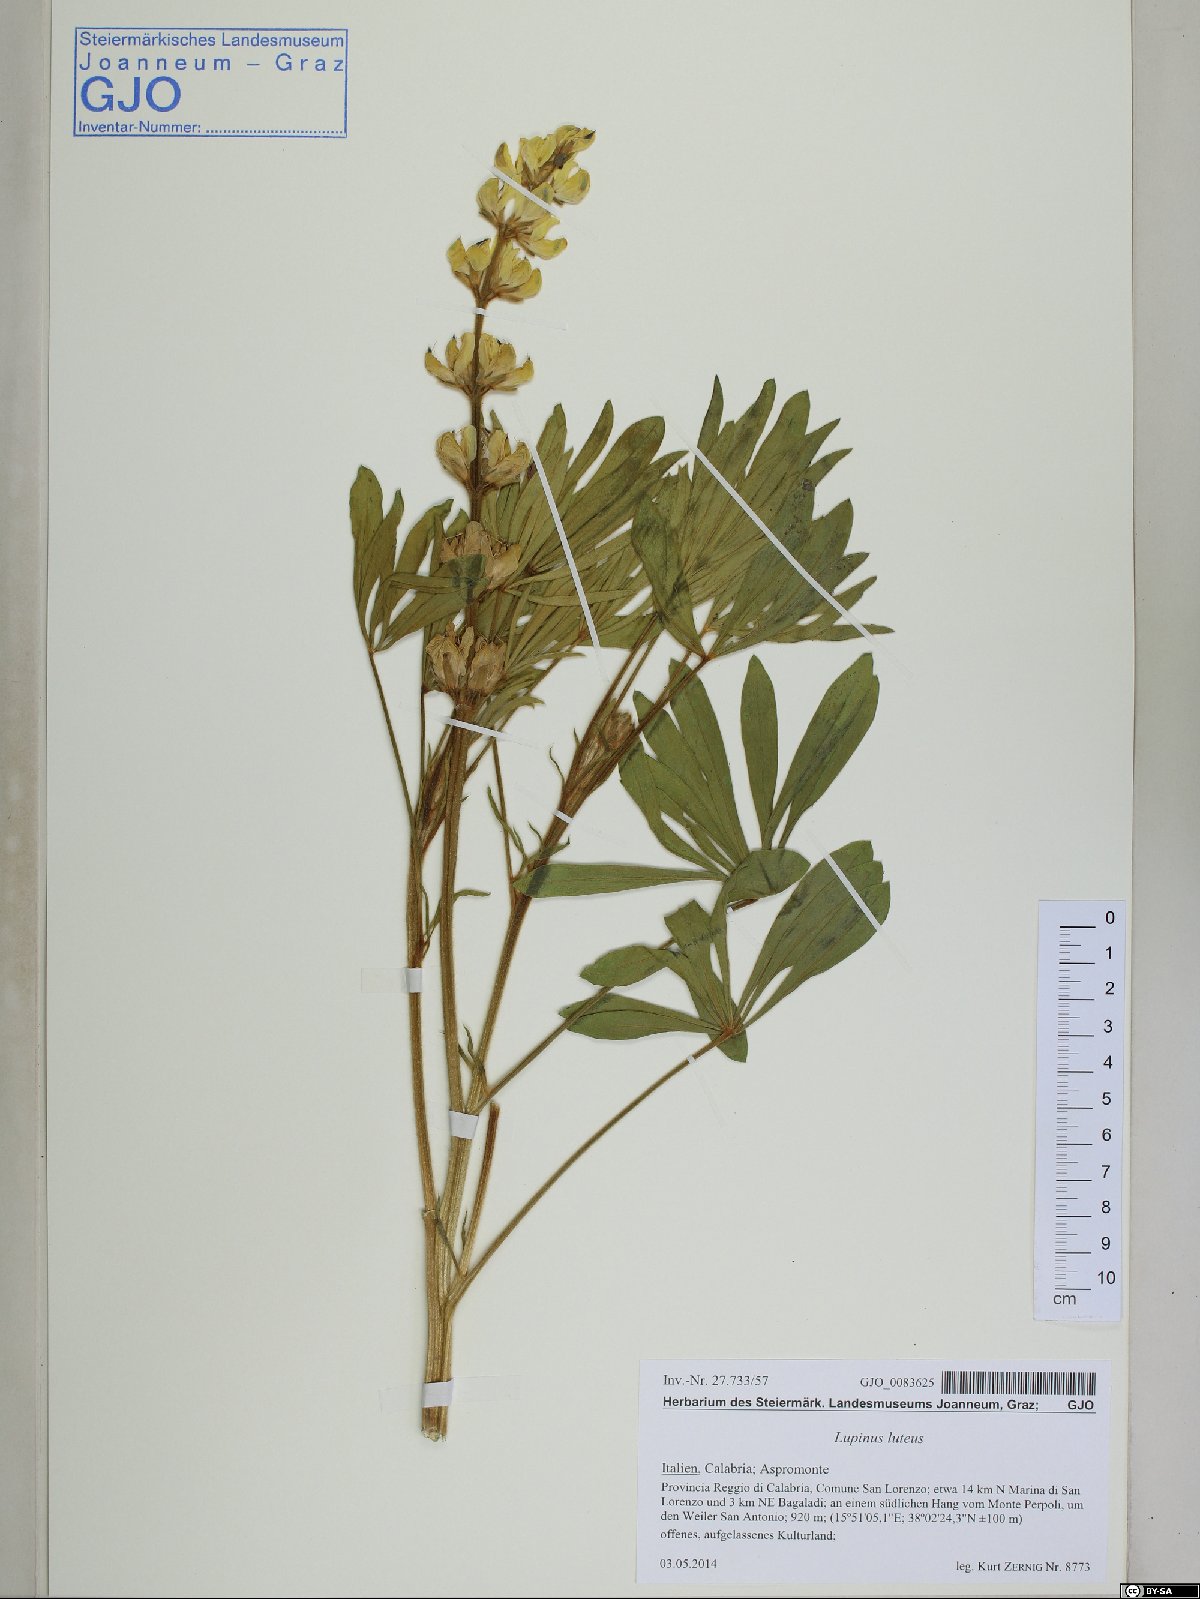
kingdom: Plantae
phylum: Tracheophyta
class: Magnoliopsida
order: Fabales
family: Fabaceae
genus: Lupinus
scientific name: Lupinus luteus
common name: European yellow lupine
